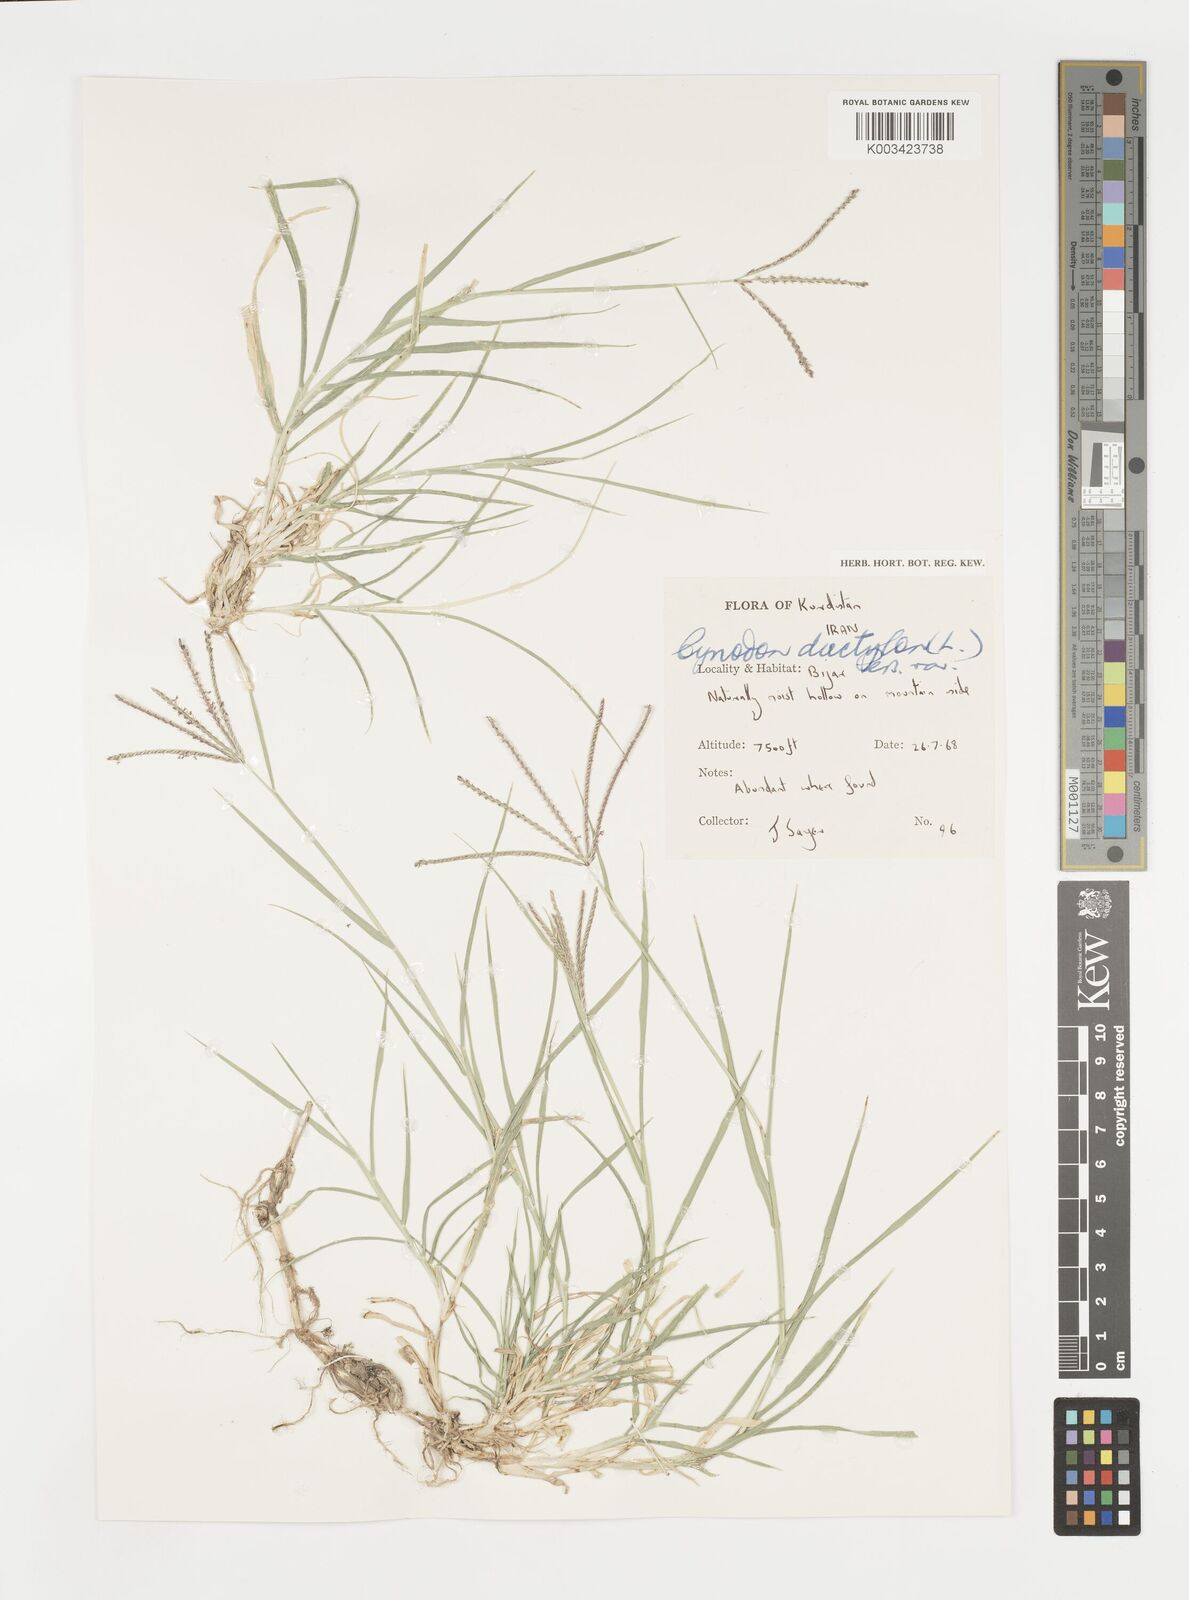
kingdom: Plantae
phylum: Tracheophyta
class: Liliopsida
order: Poales
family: Poaceae
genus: Cynodon
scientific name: Cynodon dactylon
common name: Bermuda grass
